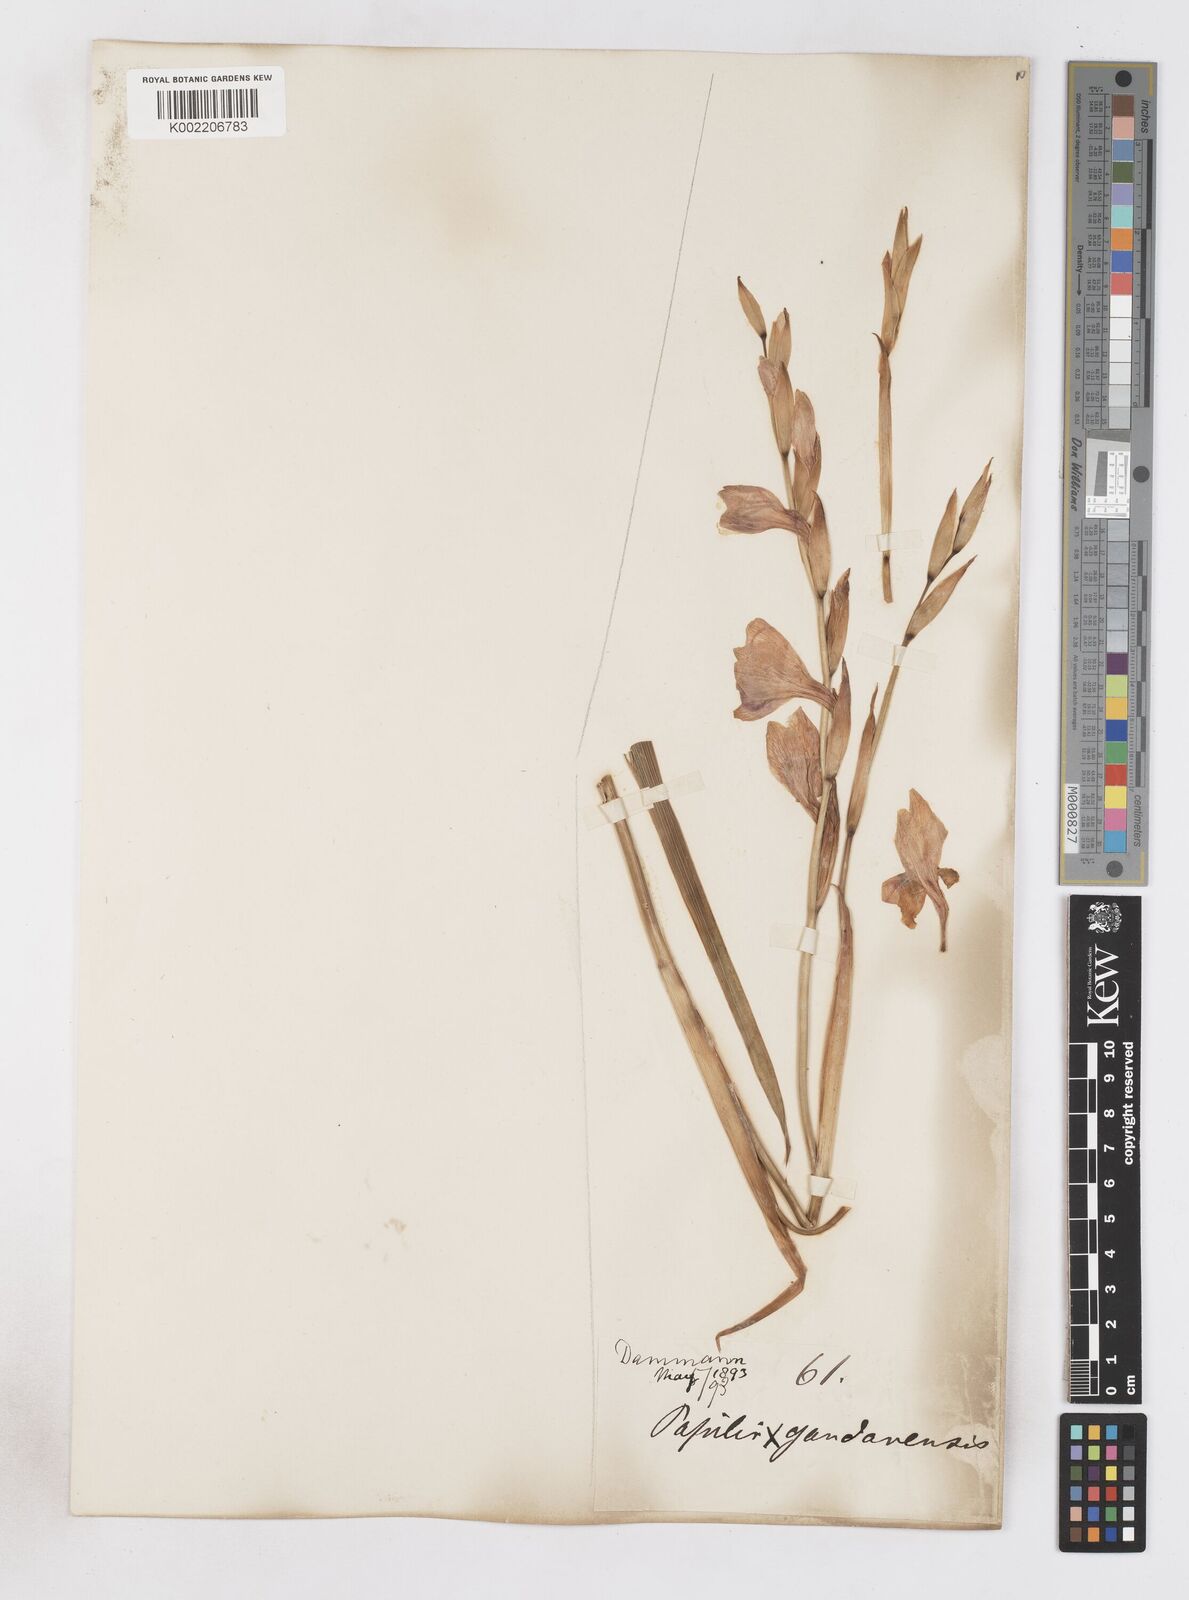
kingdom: Plantae
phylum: Tracheophyta
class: Liliopsida
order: Asparagales
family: Iridaceae
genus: Gladiolus
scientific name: Gladiolus papilio
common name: Goldblotch gladiolus
